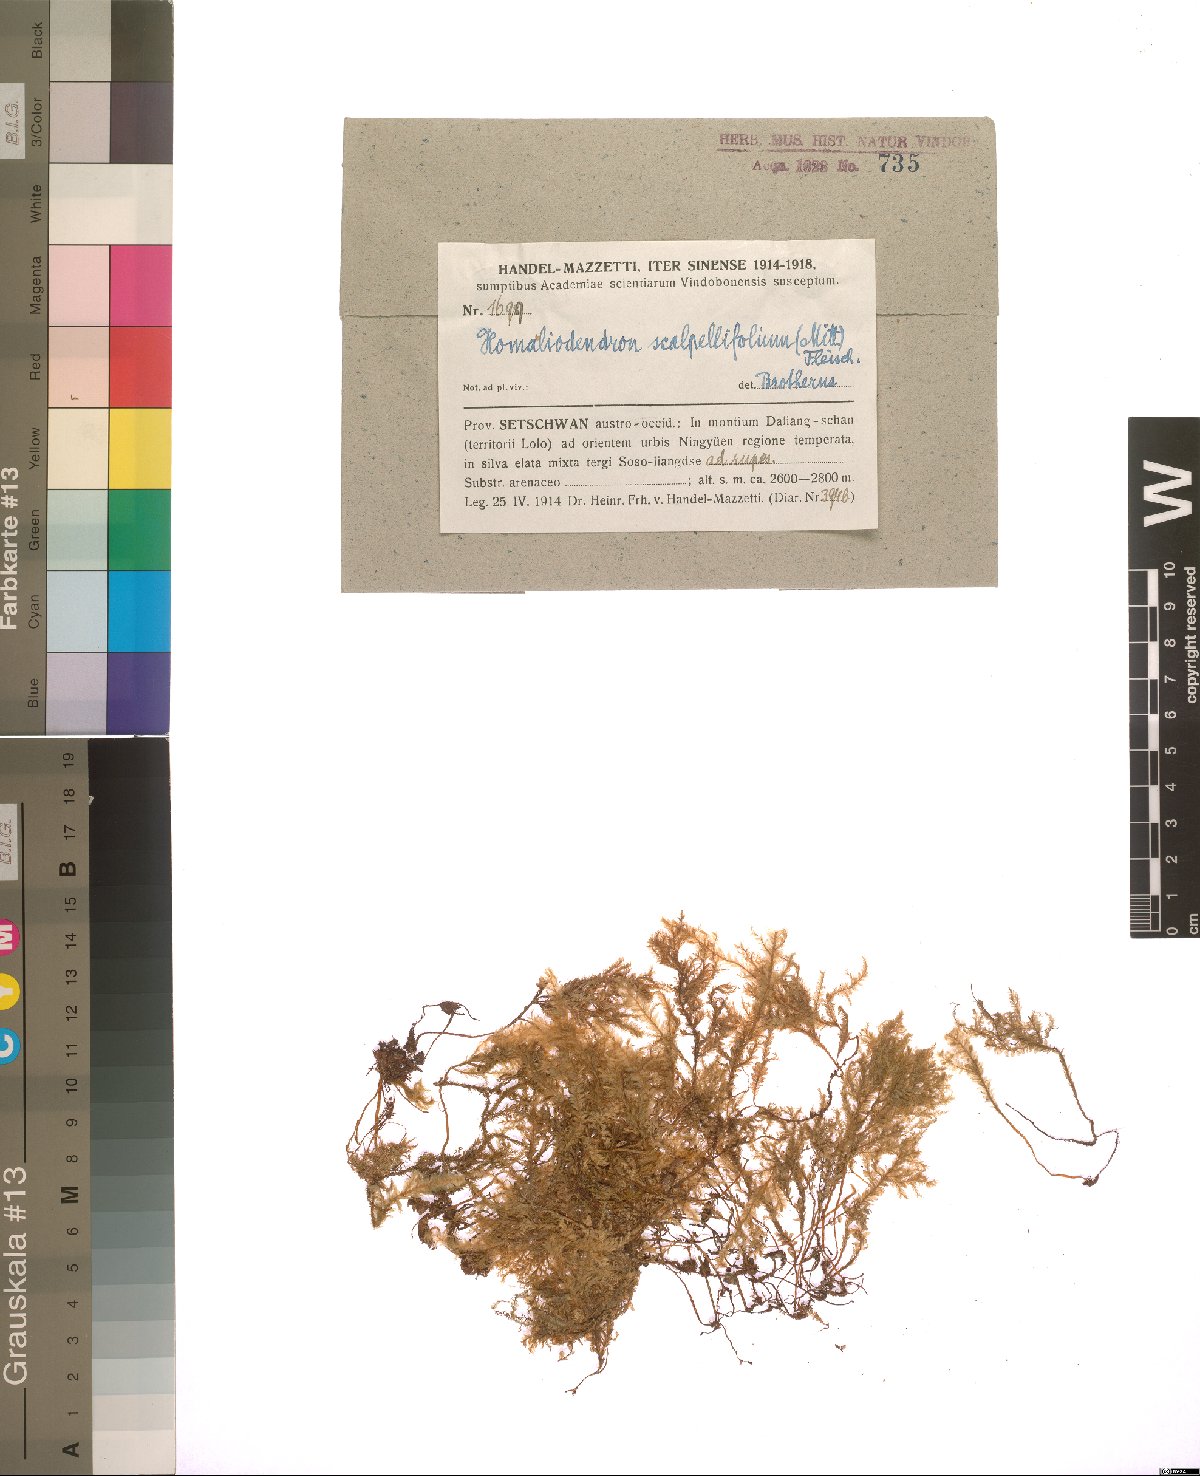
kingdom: Plantae
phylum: Bryophyta
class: Bryopsida
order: Hypnales
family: Neckeraceae
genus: Homaliodendron
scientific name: Homaliodendron flabellatum
